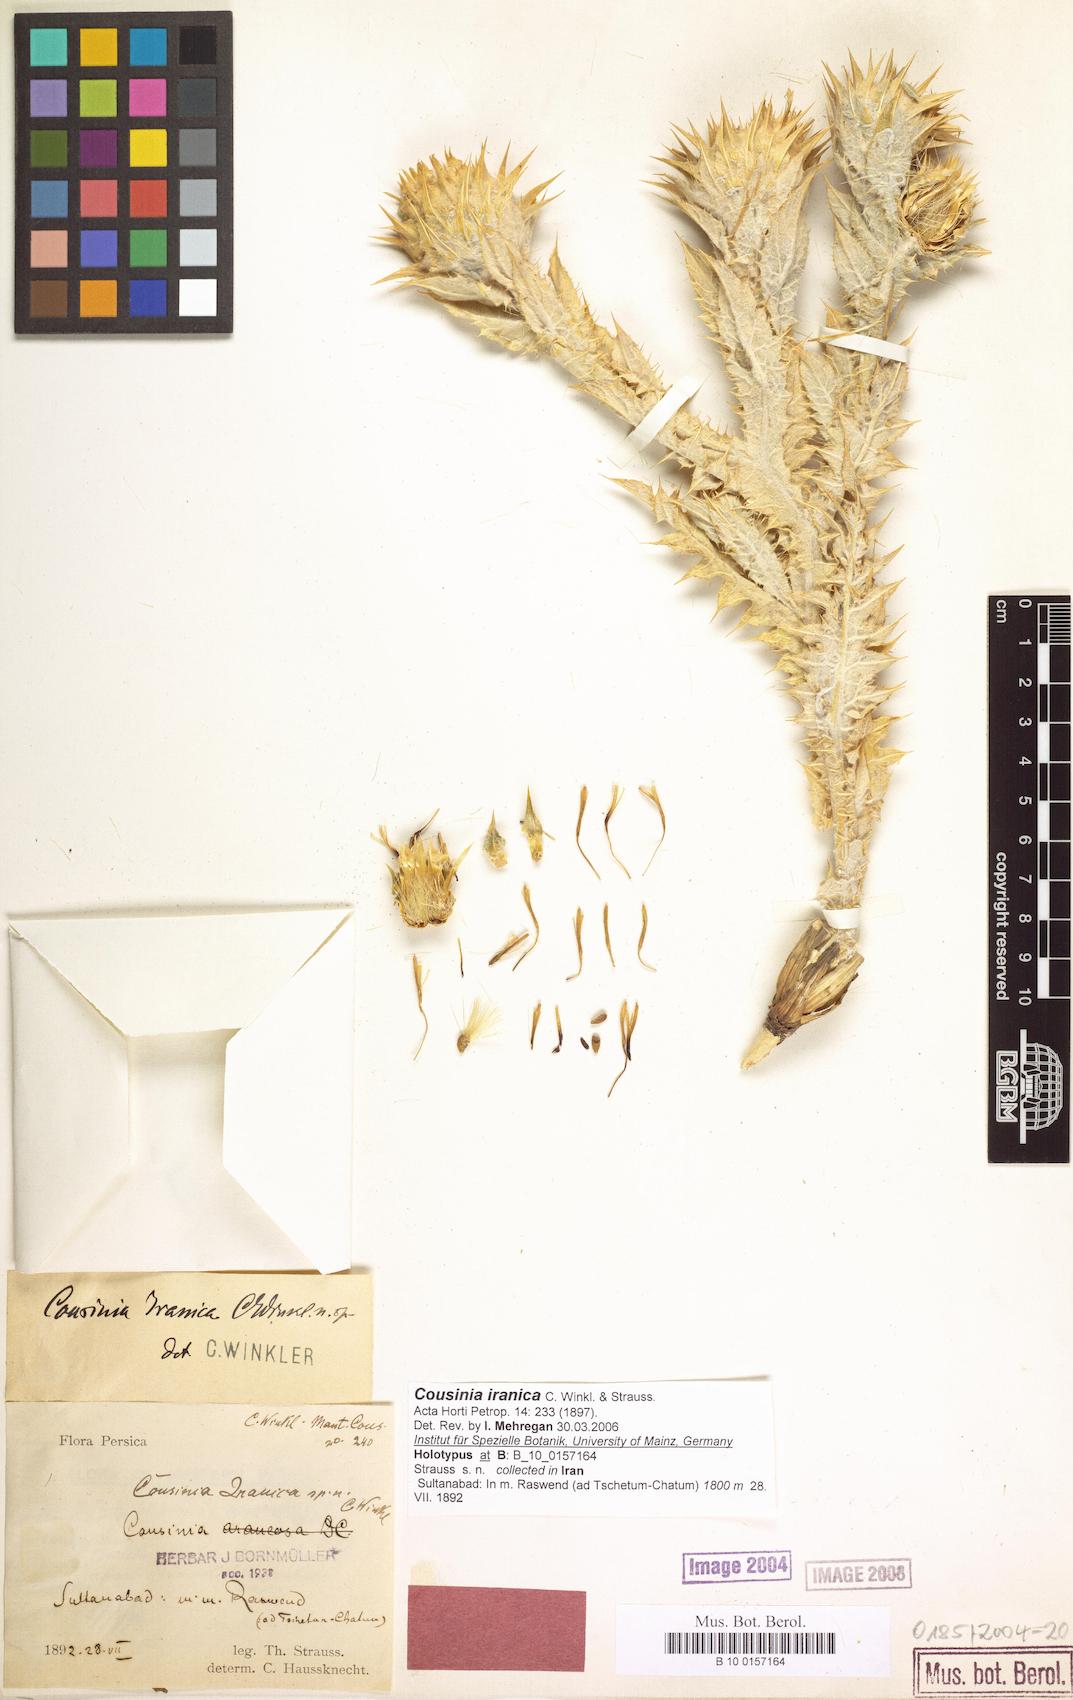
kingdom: Plantae
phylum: Tracheophyta
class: Magnoliopsida
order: Asterales
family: Asteraceae
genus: Cousinia
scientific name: Cousinia sagittata
